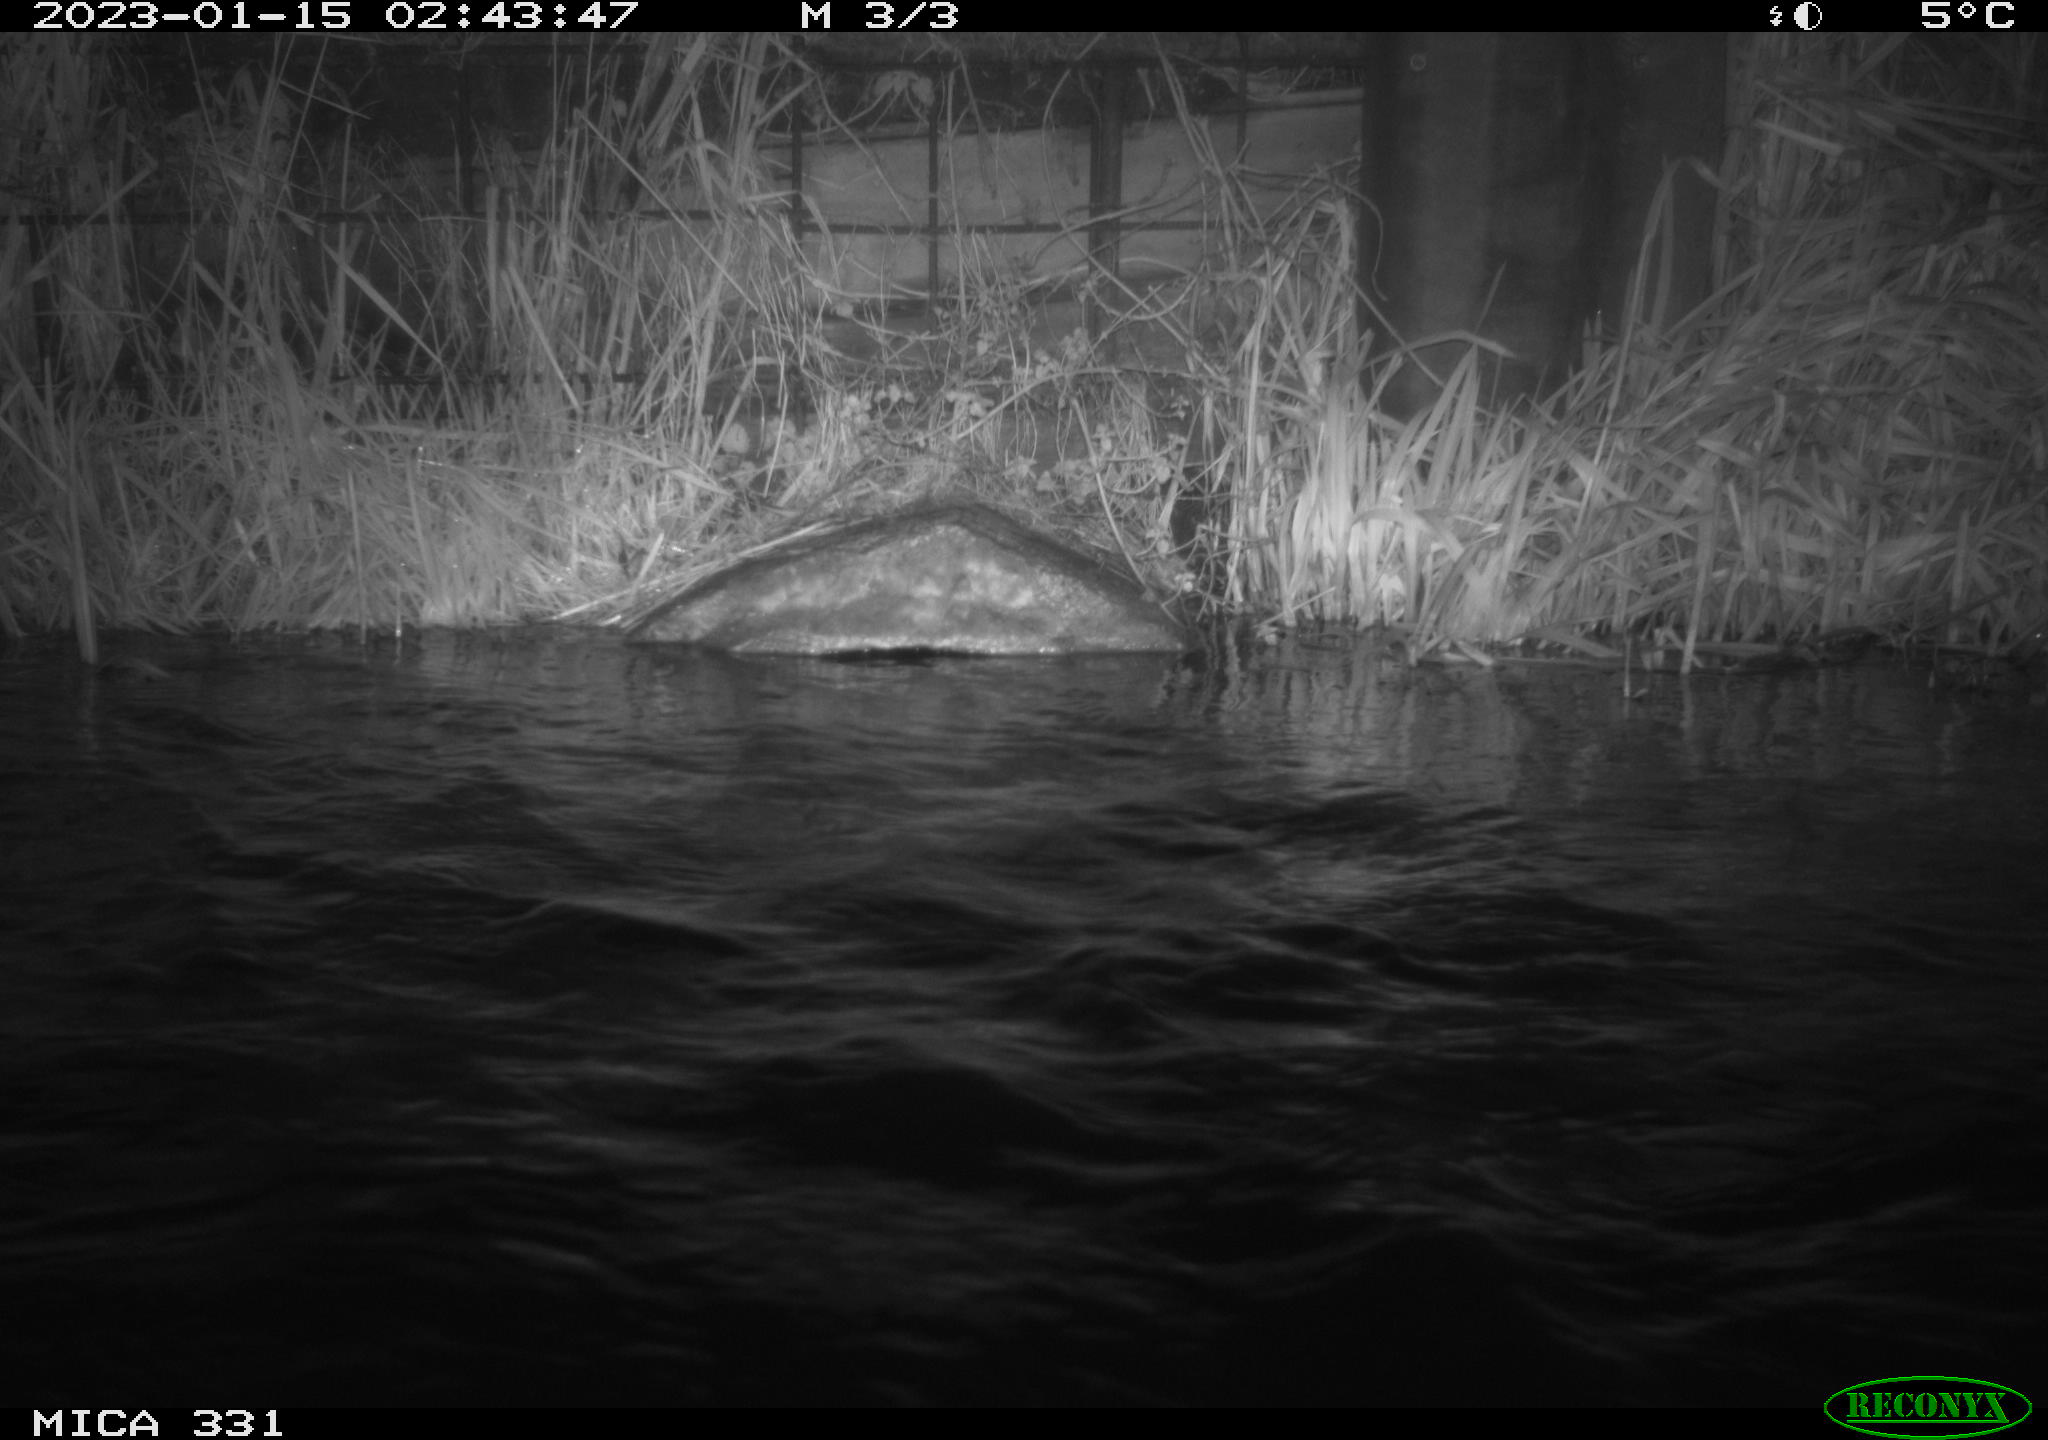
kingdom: Animalia
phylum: Chordata
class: Mammalia
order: Rodentia
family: Muridae
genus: Rattus
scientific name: Rattus norvegicus
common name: Brown rat
